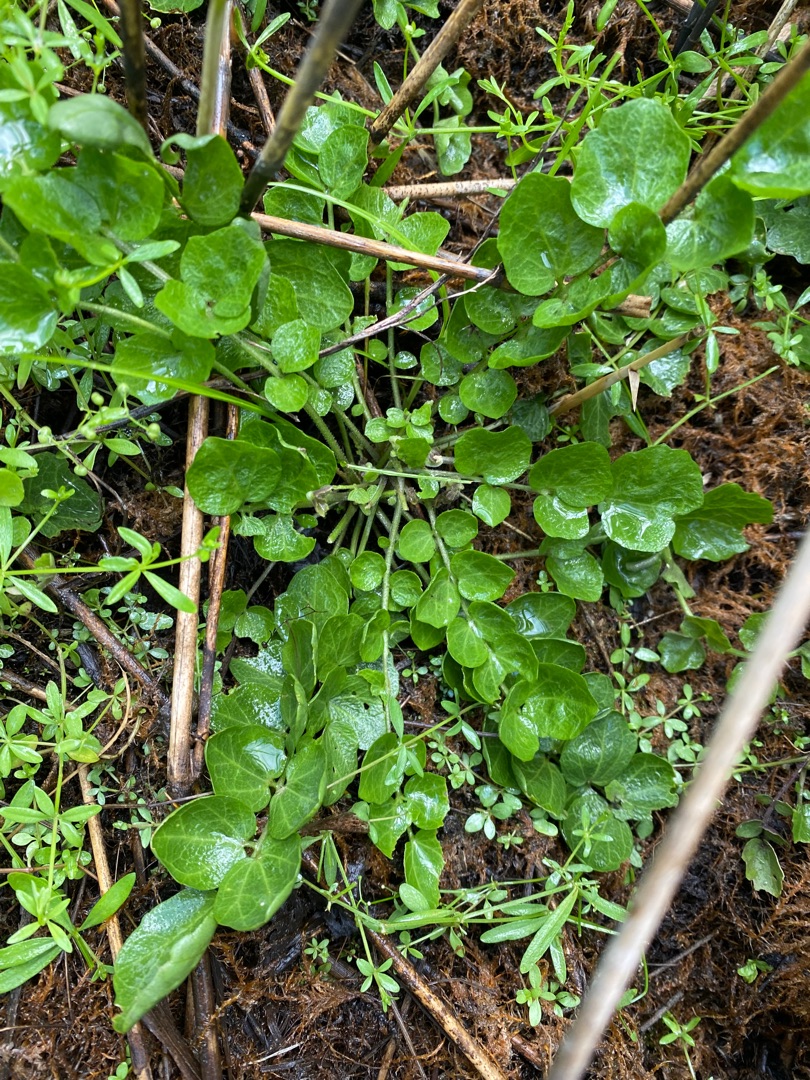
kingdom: Plantae
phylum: Tracheophyta
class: Magnoliopsida
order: Brassicales
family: Brassicaceae
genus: Cardamine
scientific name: Cardamine
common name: Springklapslægten
